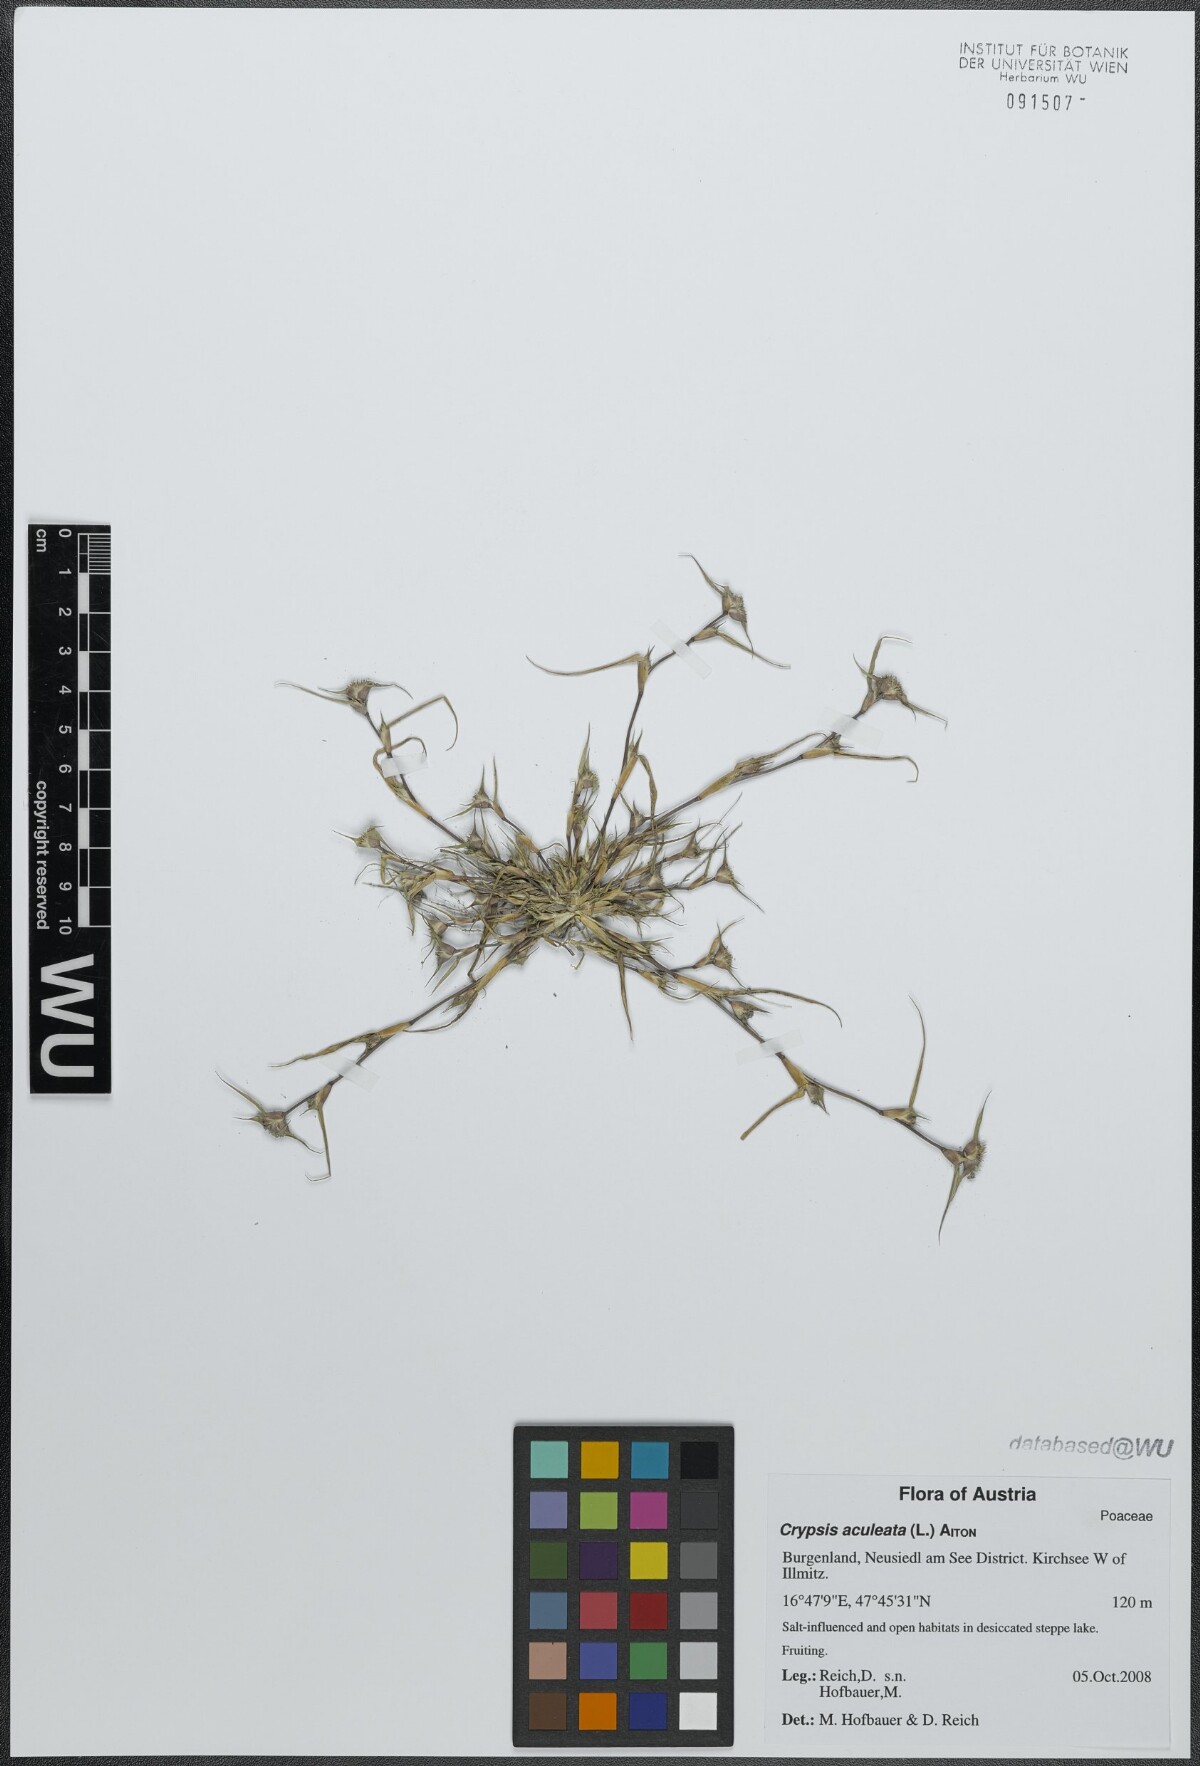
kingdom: Plantae
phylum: Tracheophyta
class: Liliopsida
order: Poales
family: Poaceae
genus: Sporobolus
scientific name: Sporobolus aculeatus
